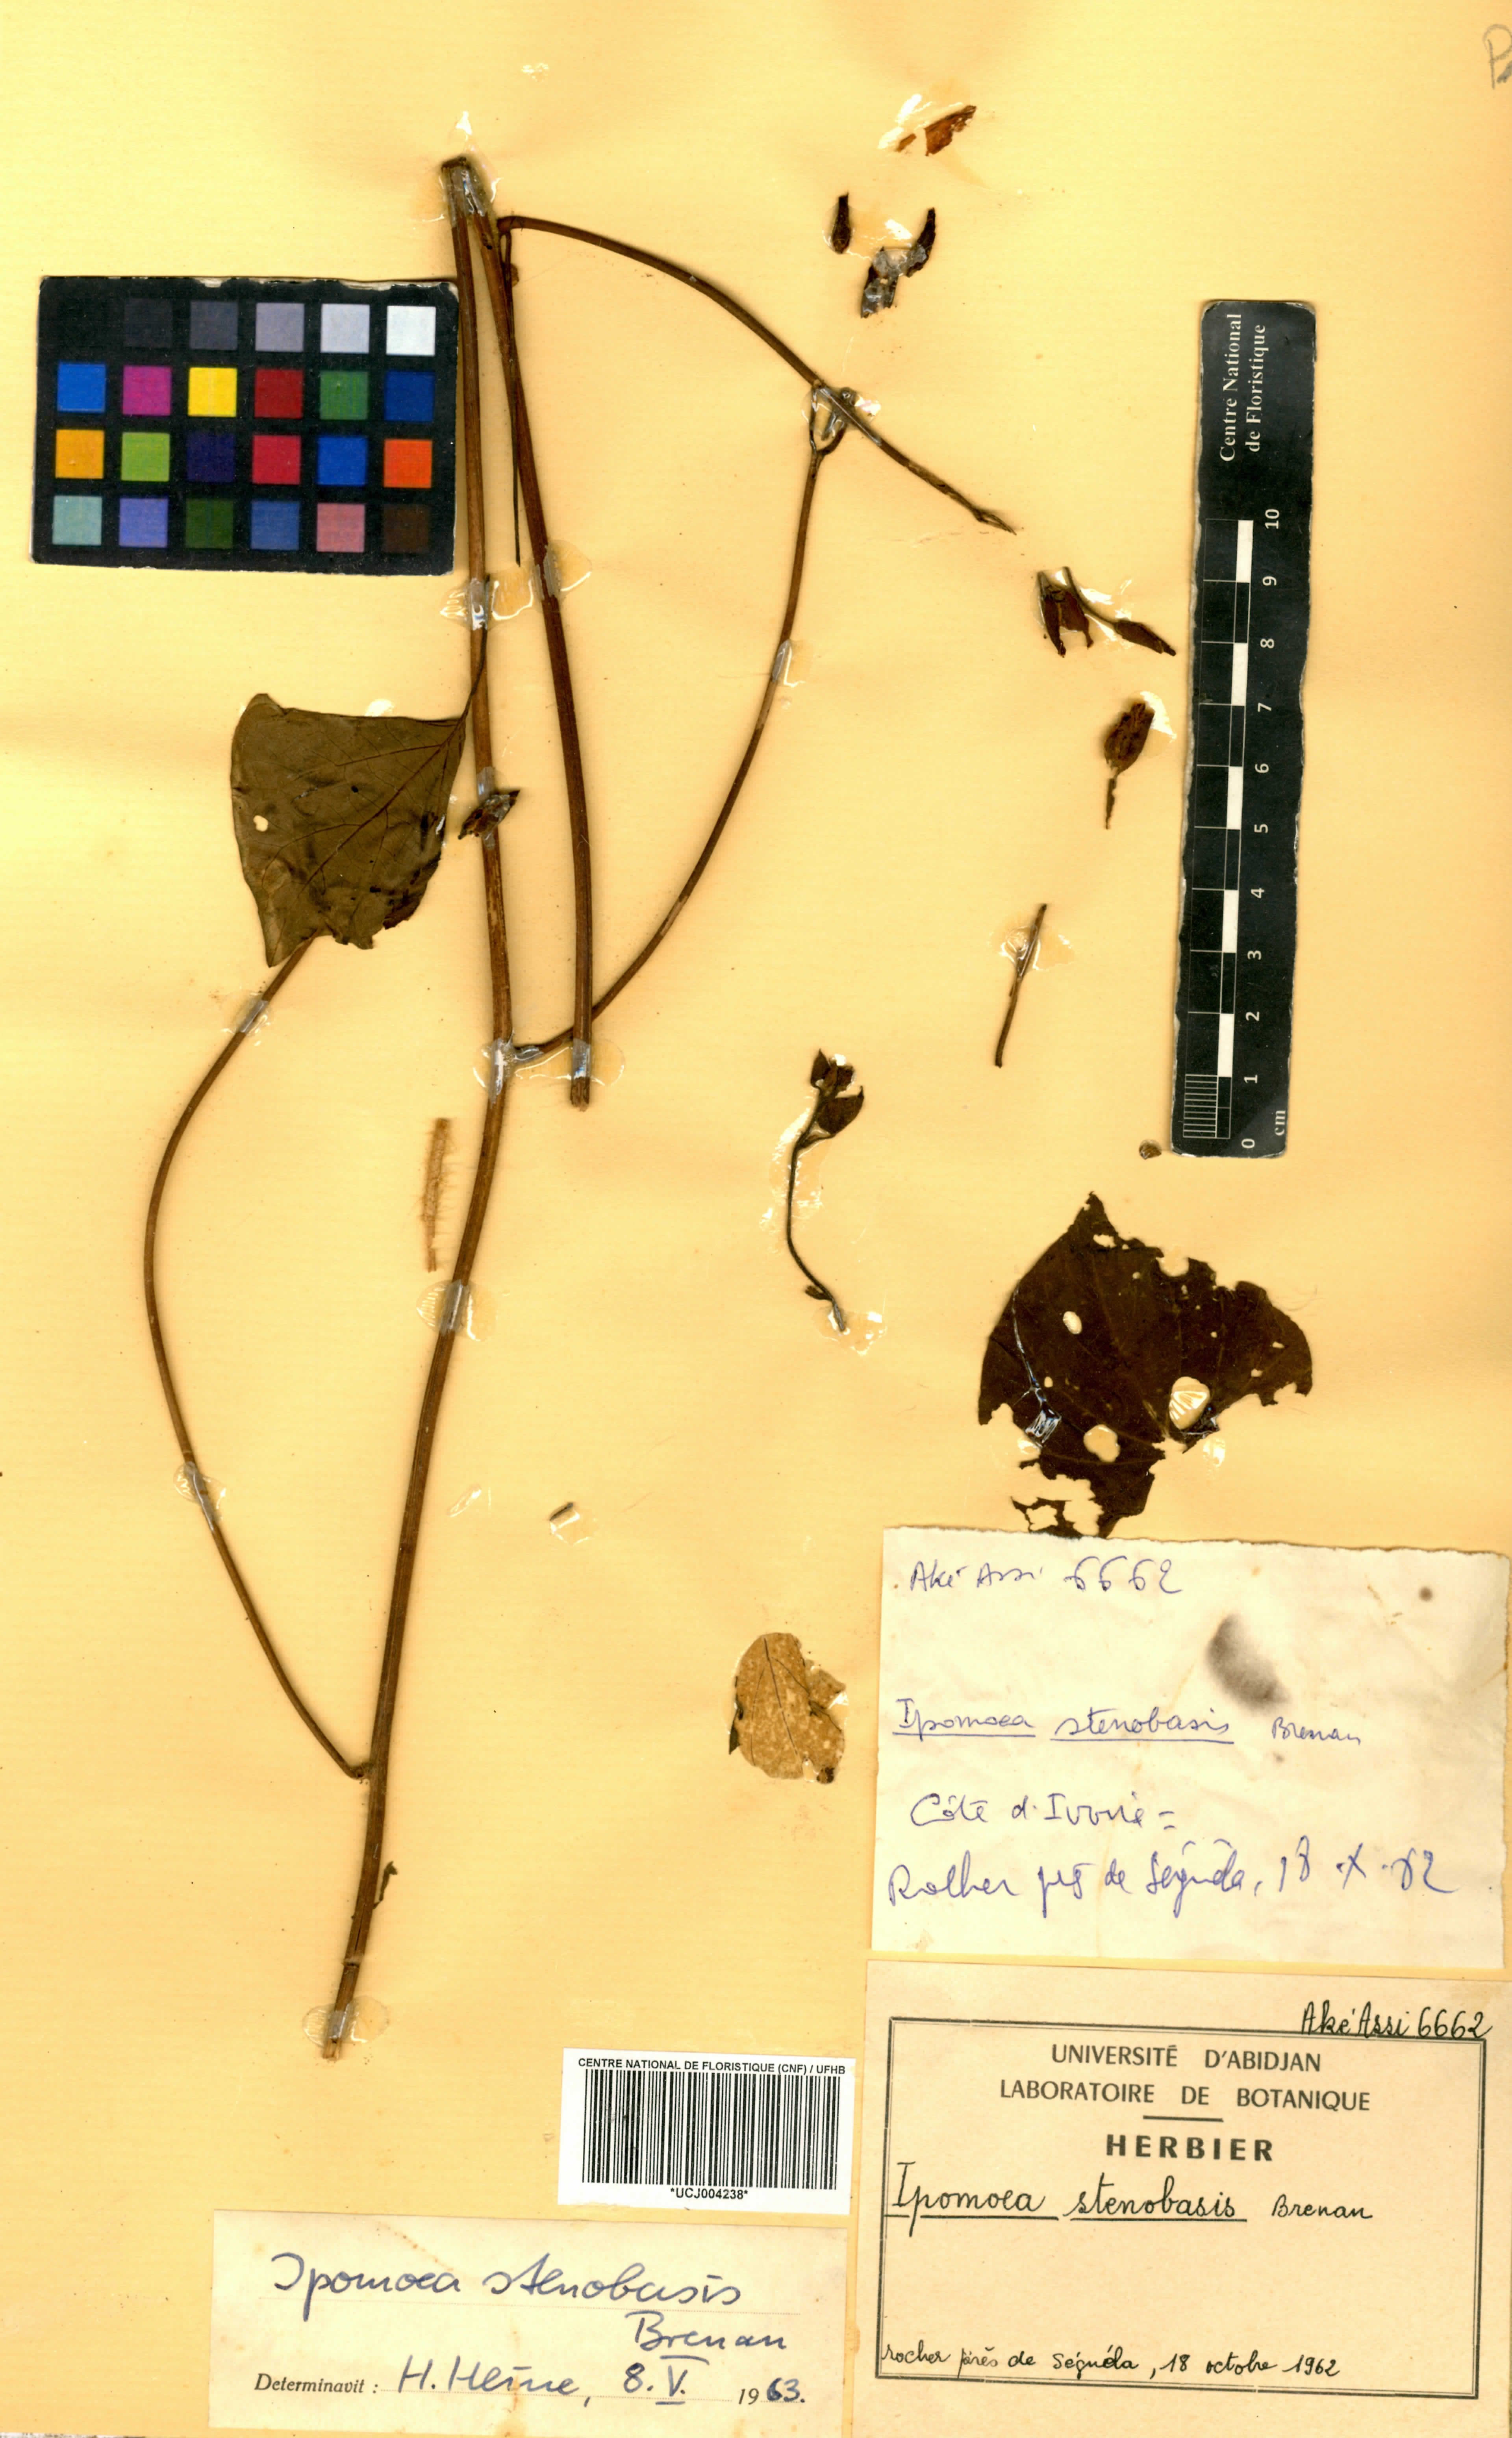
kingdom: Plantae
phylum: Tracheophyta
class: Magnoliopsida
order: Solanales
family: Convolvulaceae
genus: Ipomoea
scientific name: Ipomoea stenobasis
